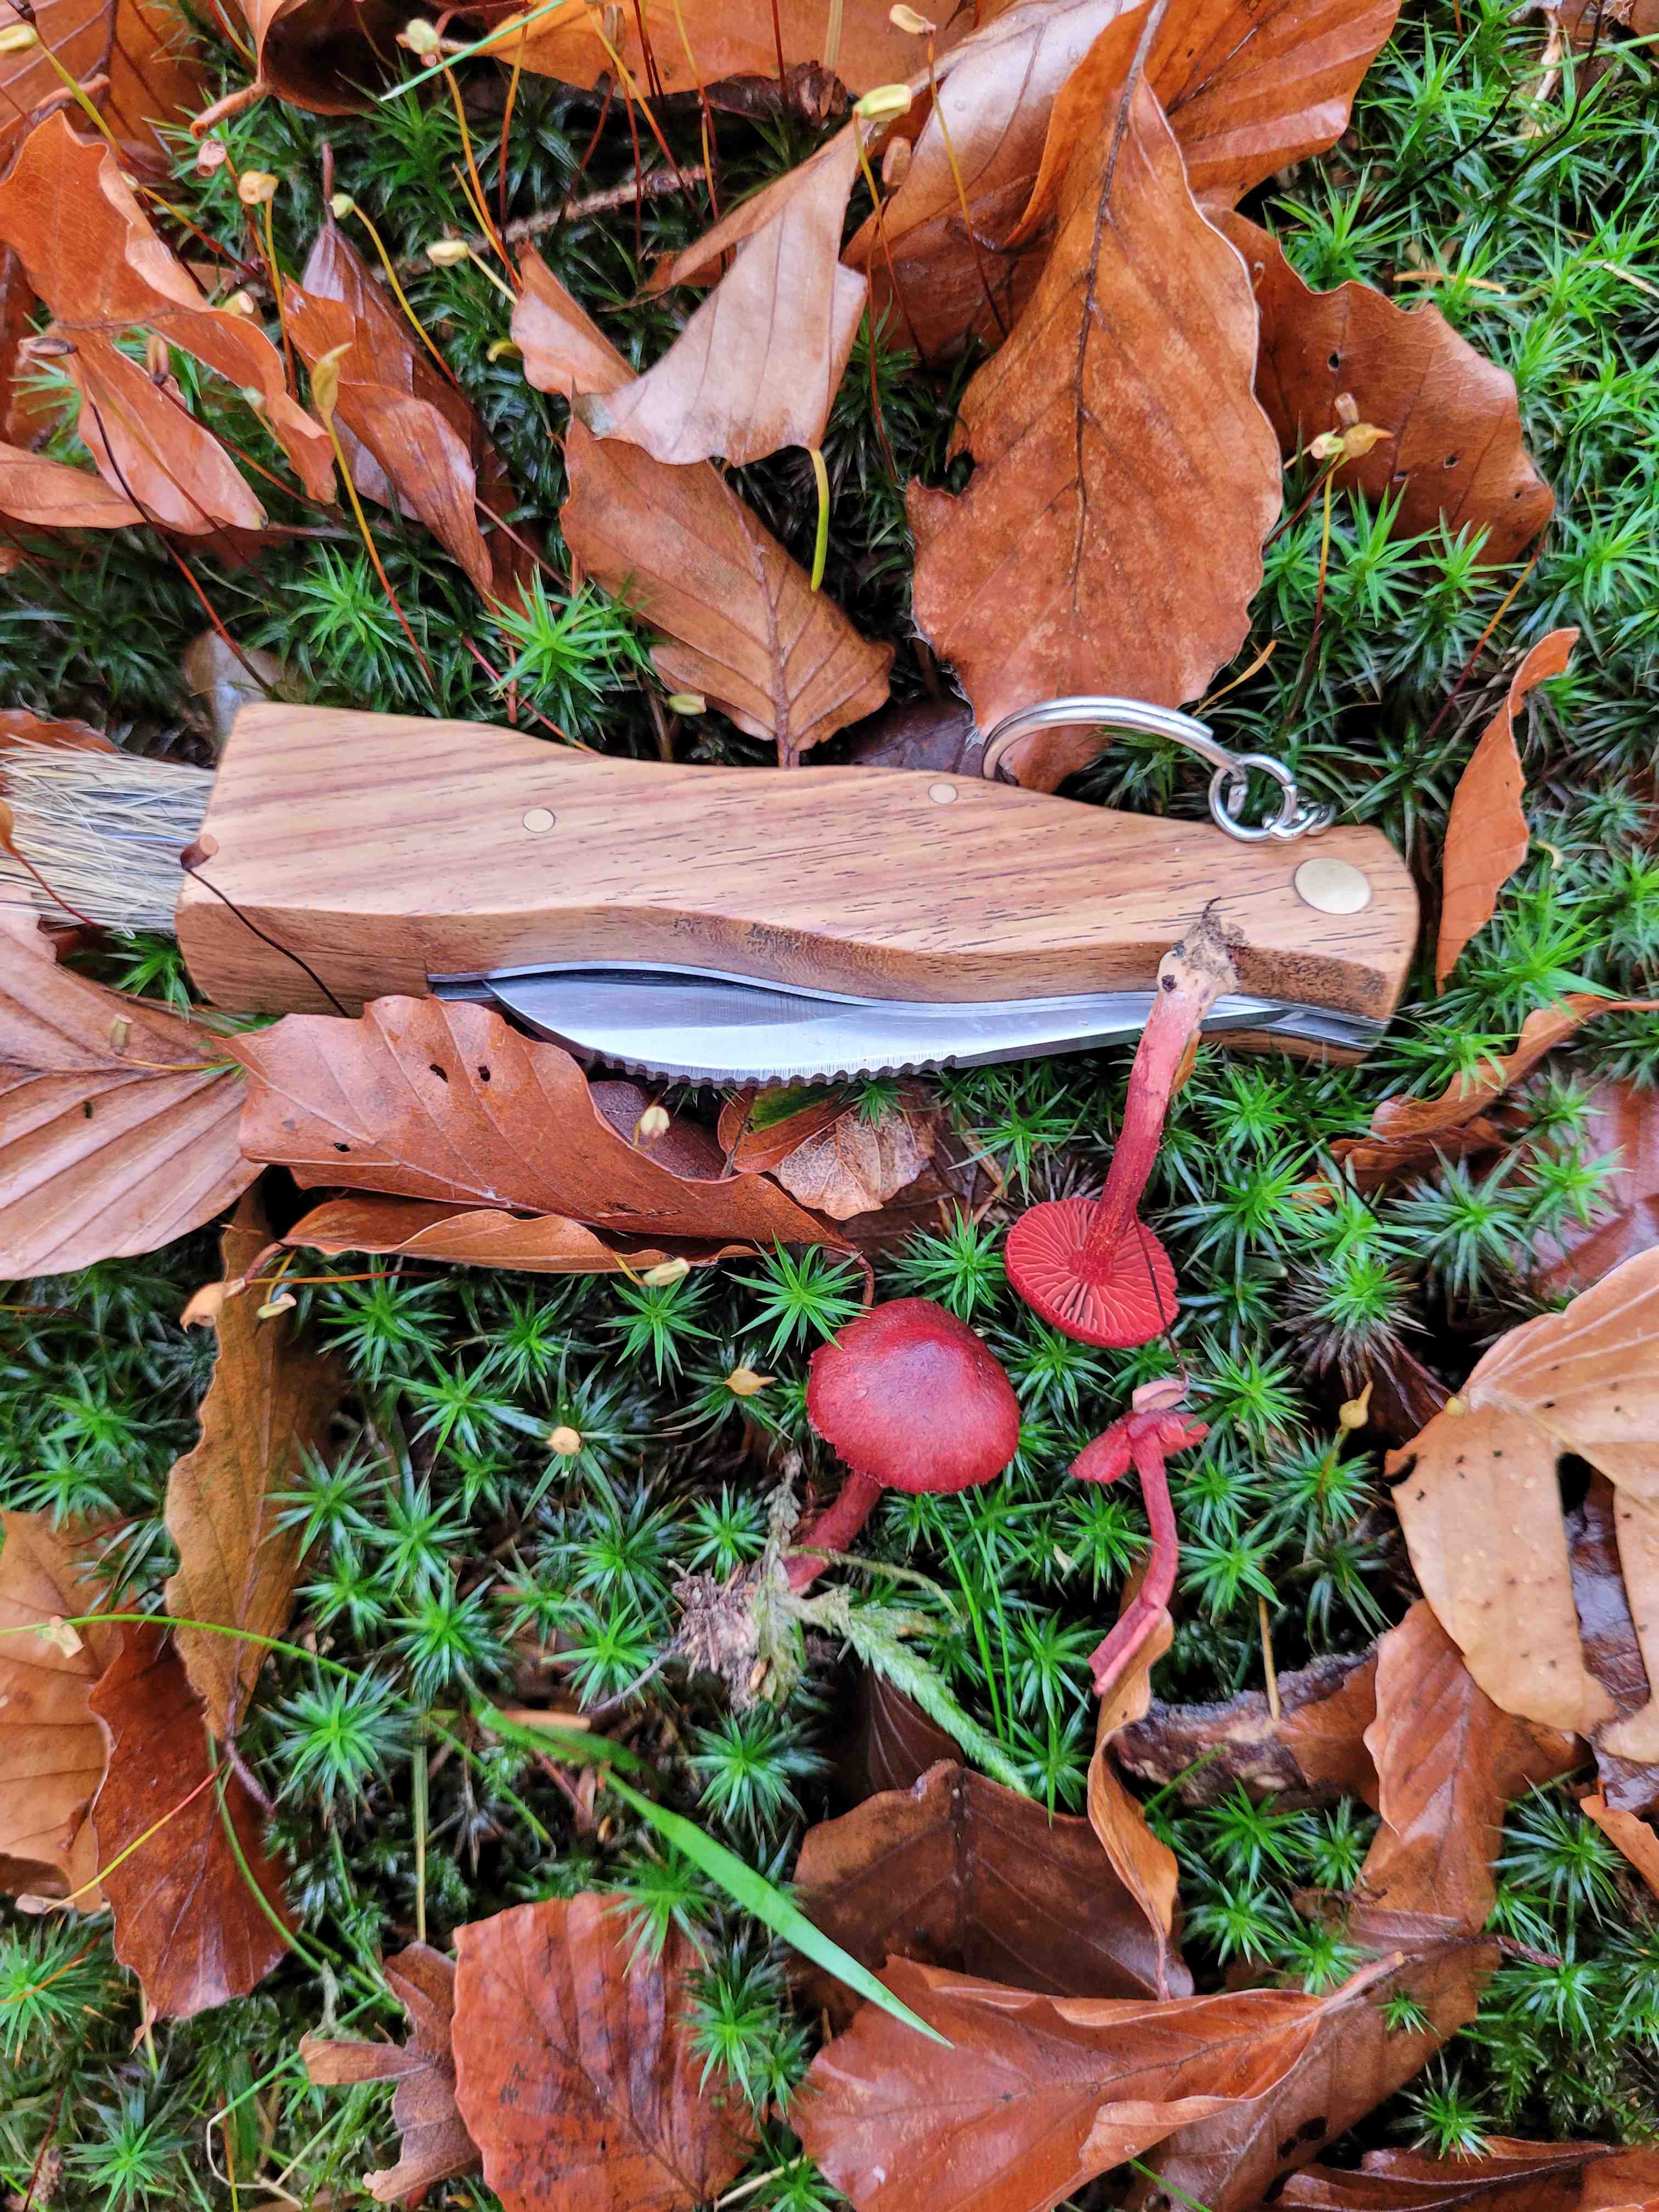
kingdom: Fungi
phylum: Basidiomycota
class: Agaricomycetes
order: Agaricales
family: Cortinariaceae
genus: Cortinarius
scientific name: Cortinarius sanguineus
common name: Bloodred webcap
